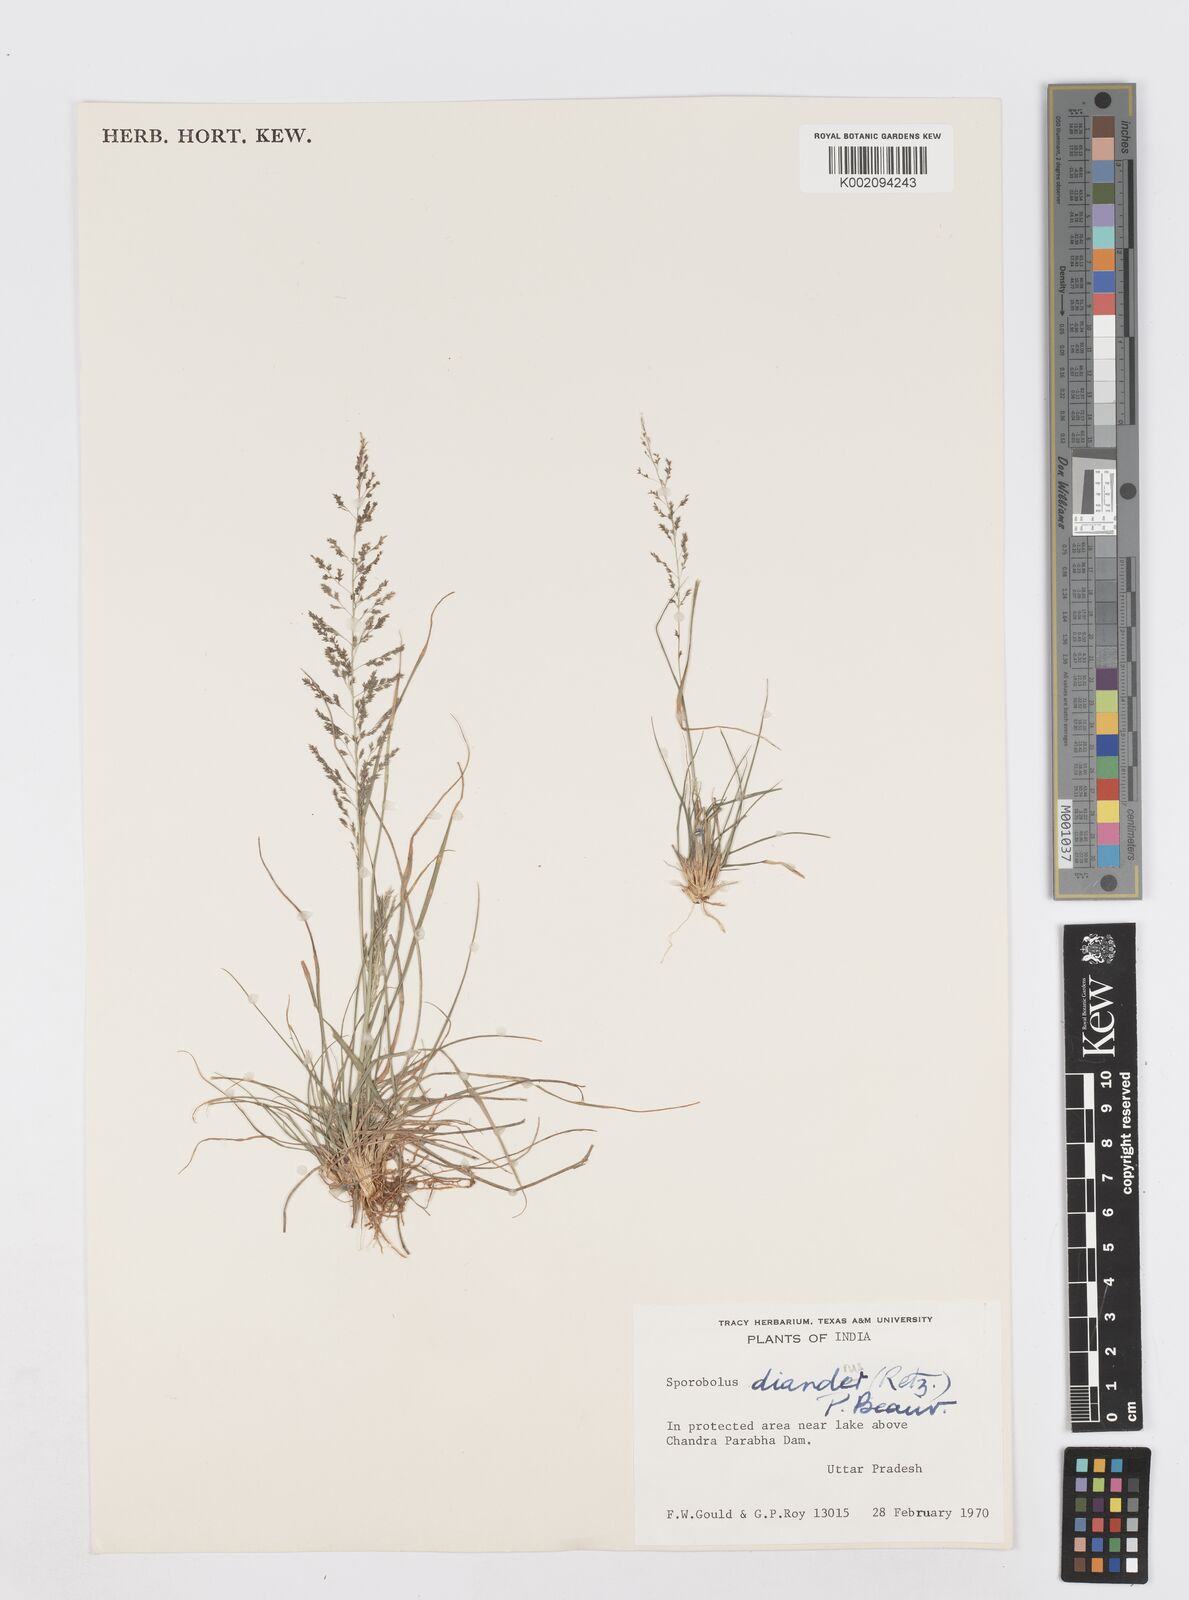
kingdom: Plantae
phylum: Tracheophyta
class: Liliopsida
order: Poales
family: Poaceae
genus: Sporobolus
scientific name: Sporobolus
